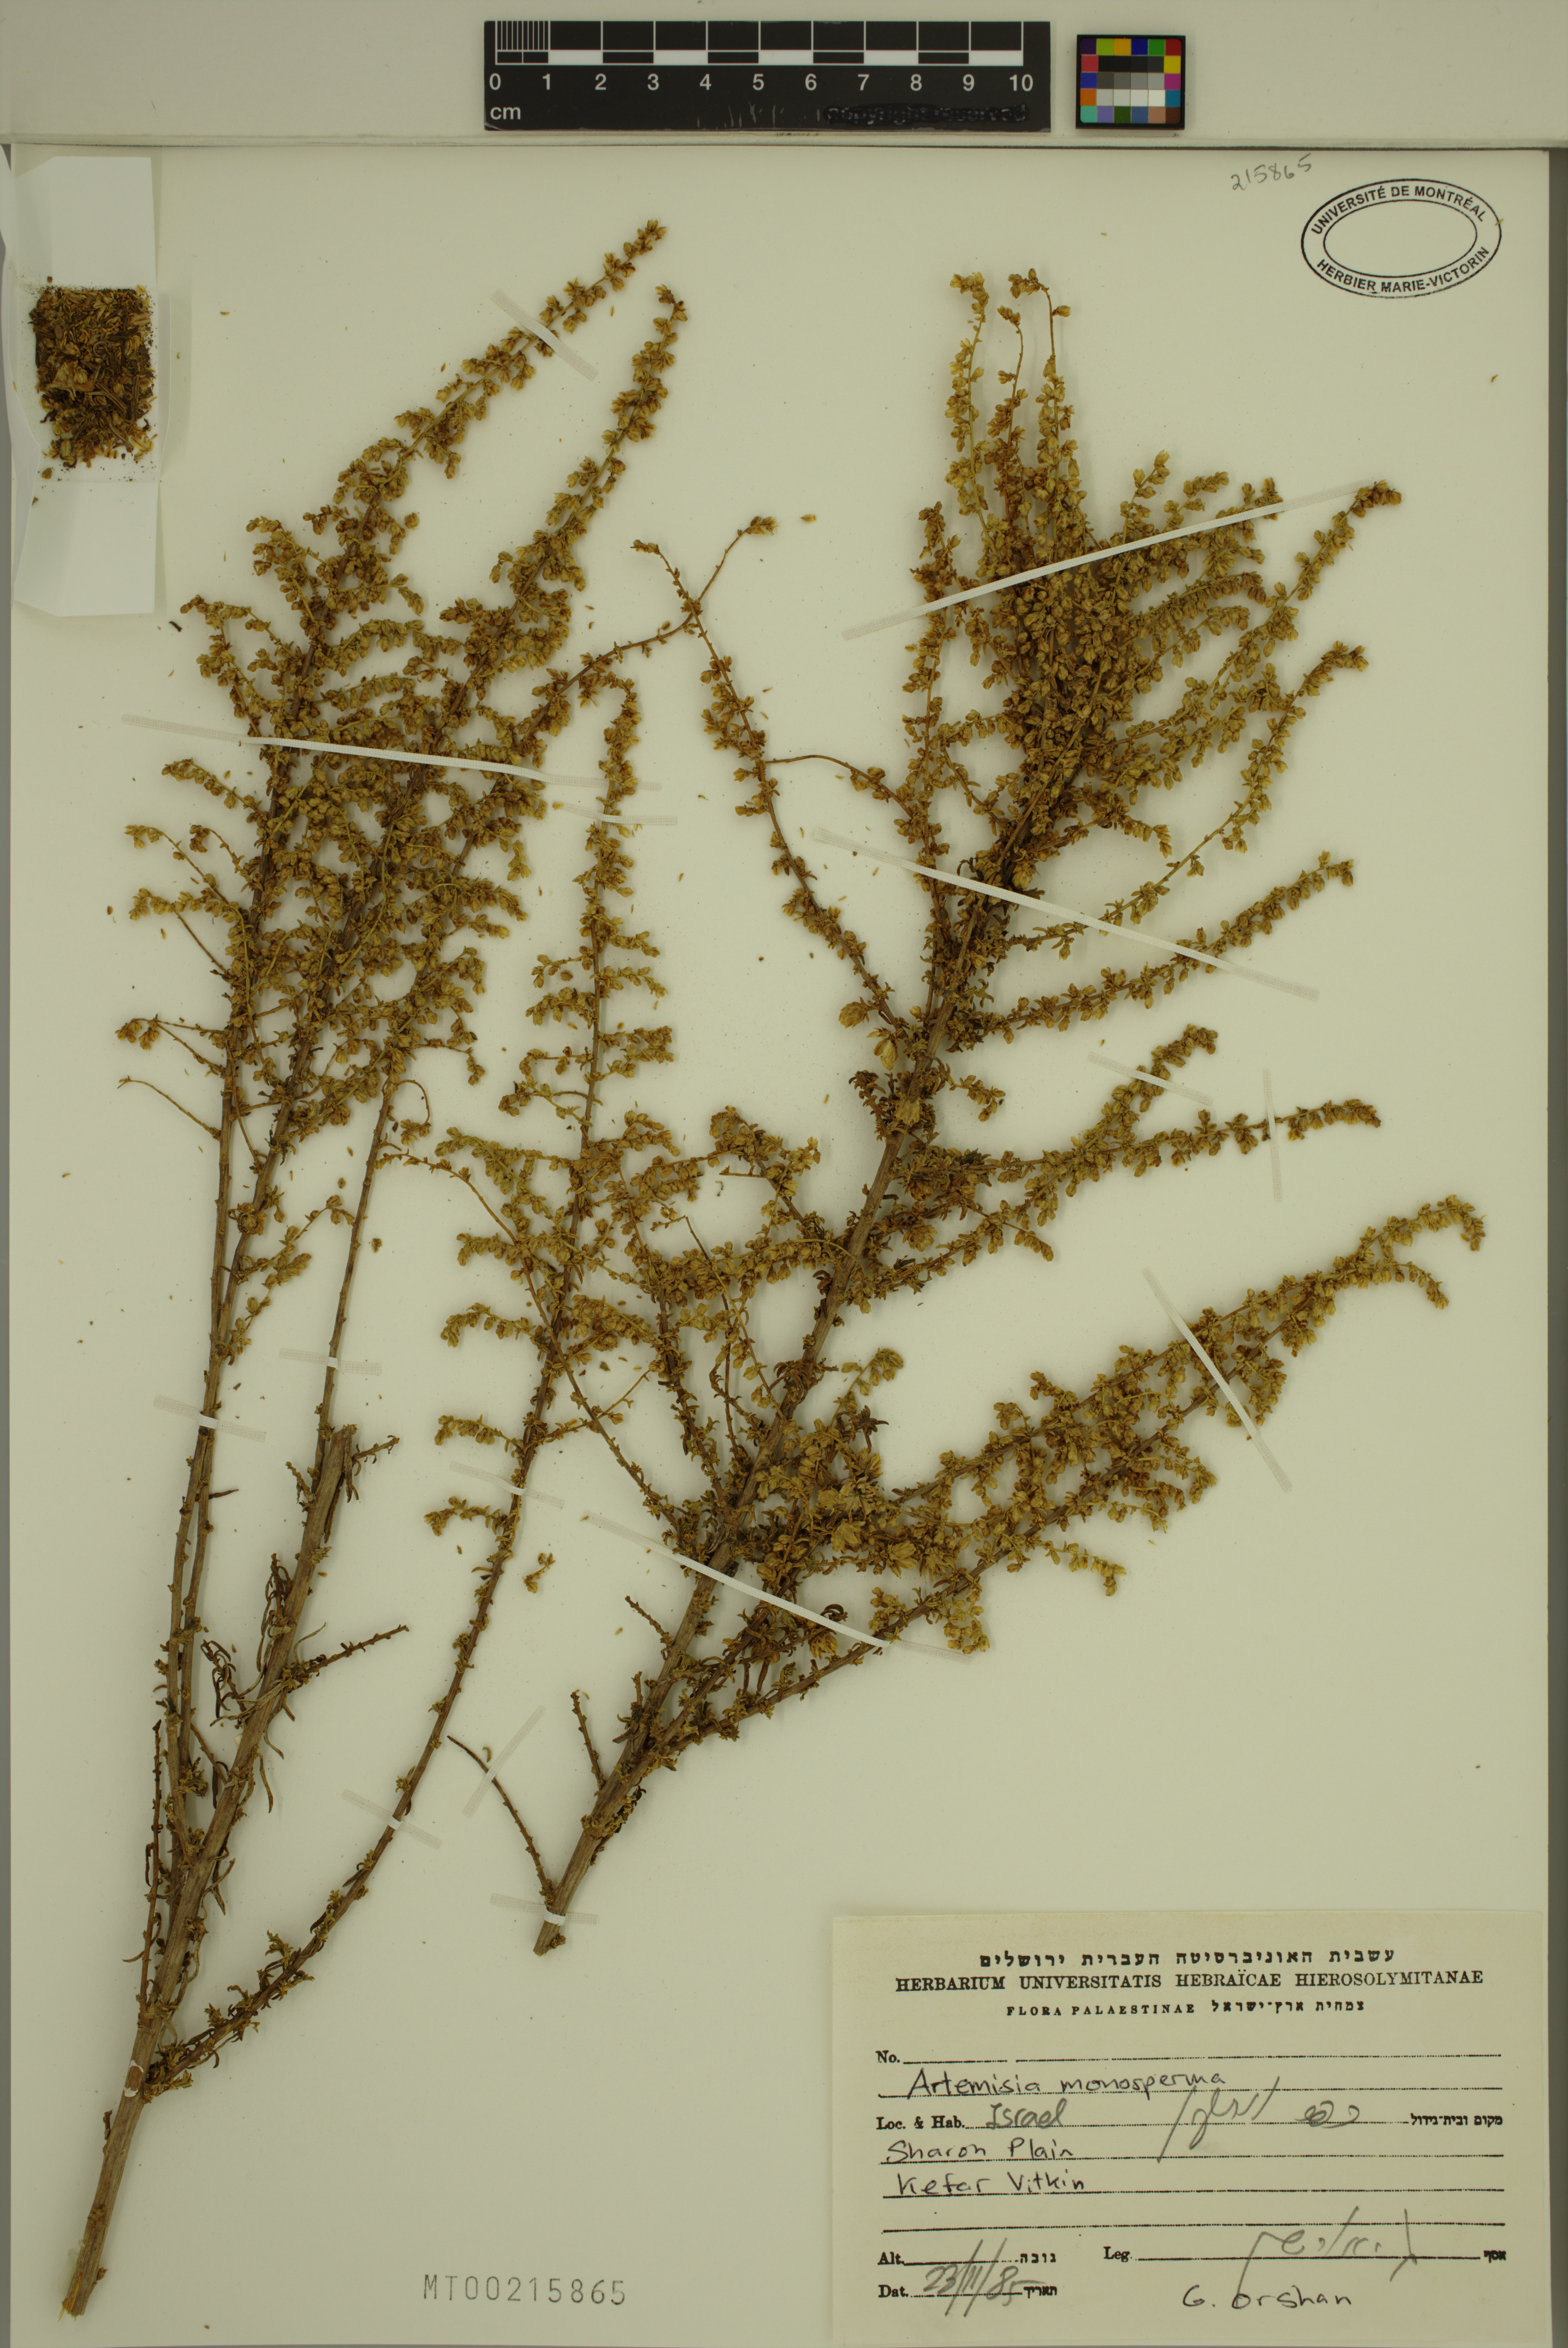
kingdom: Plantae
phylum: Tracheophyta
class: Magnoliopsida
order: Asterales
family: Asteraceae
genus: Artemisia
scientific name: Artemisia monosperma
